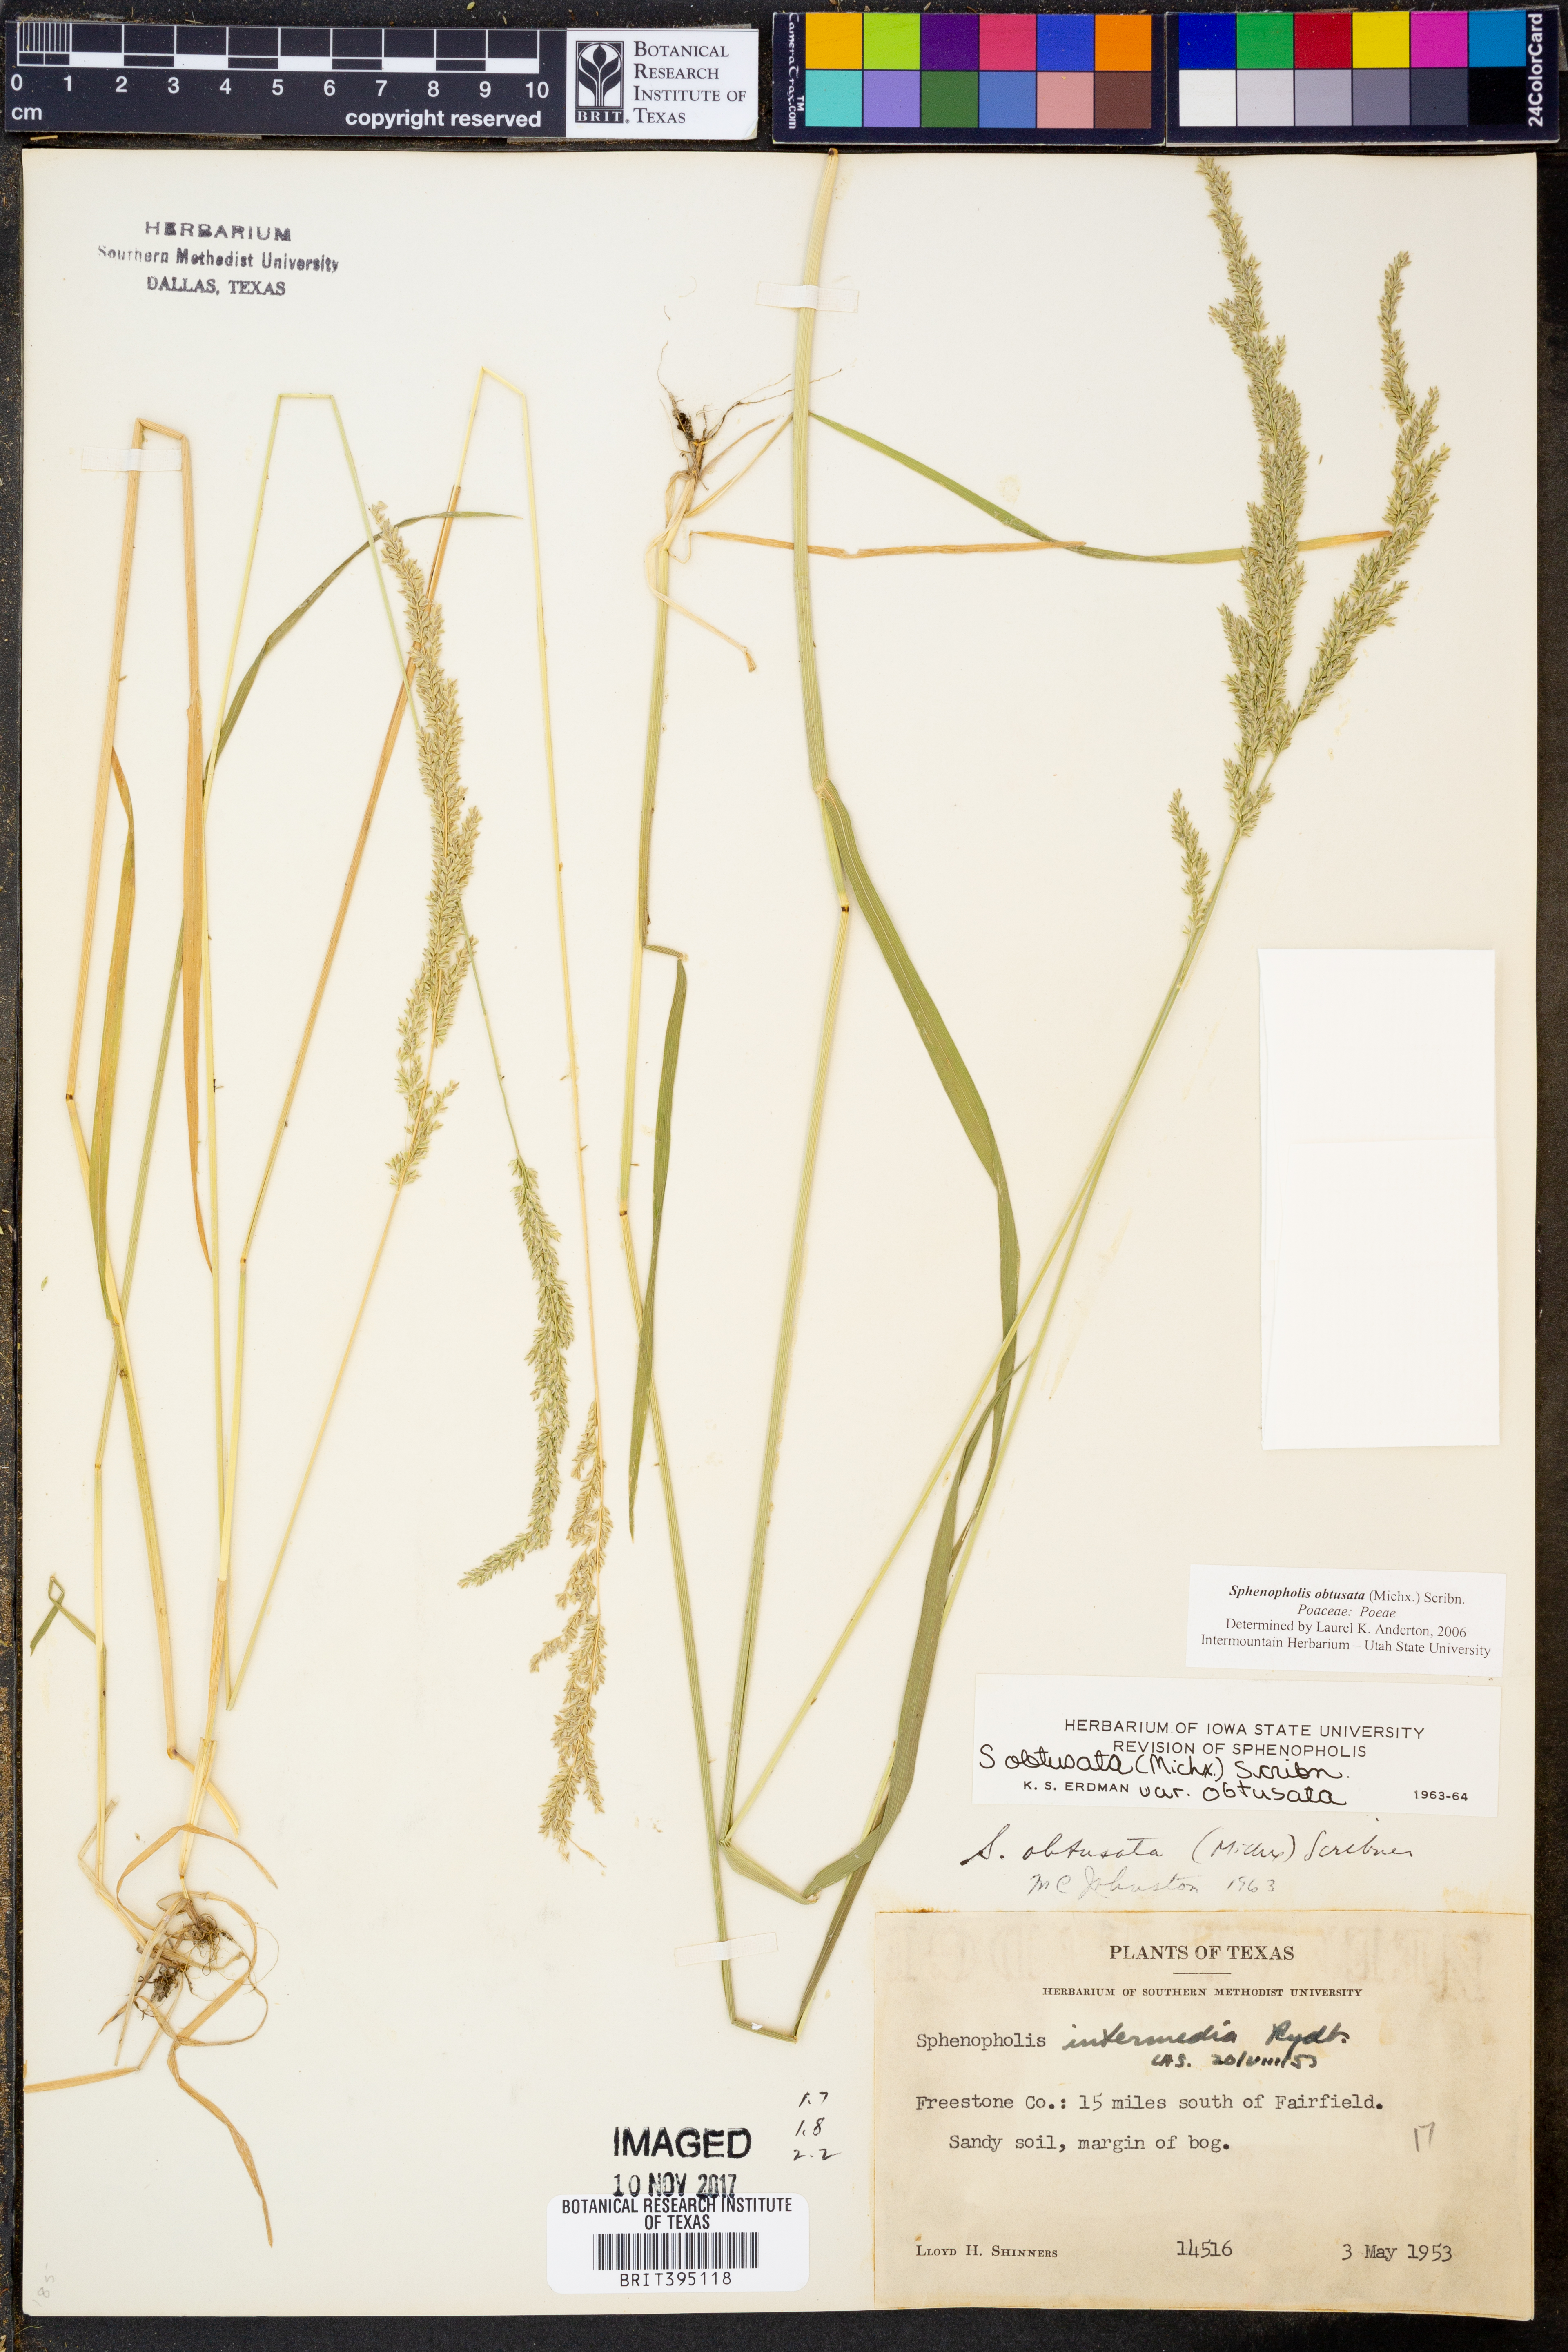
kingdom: Plantae
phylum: Tracheophyta
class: Liliopsida
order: Poales
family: Poaceae
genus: Sphenopholis
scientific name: Sphenopholis obtusata
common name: Prairie grass
